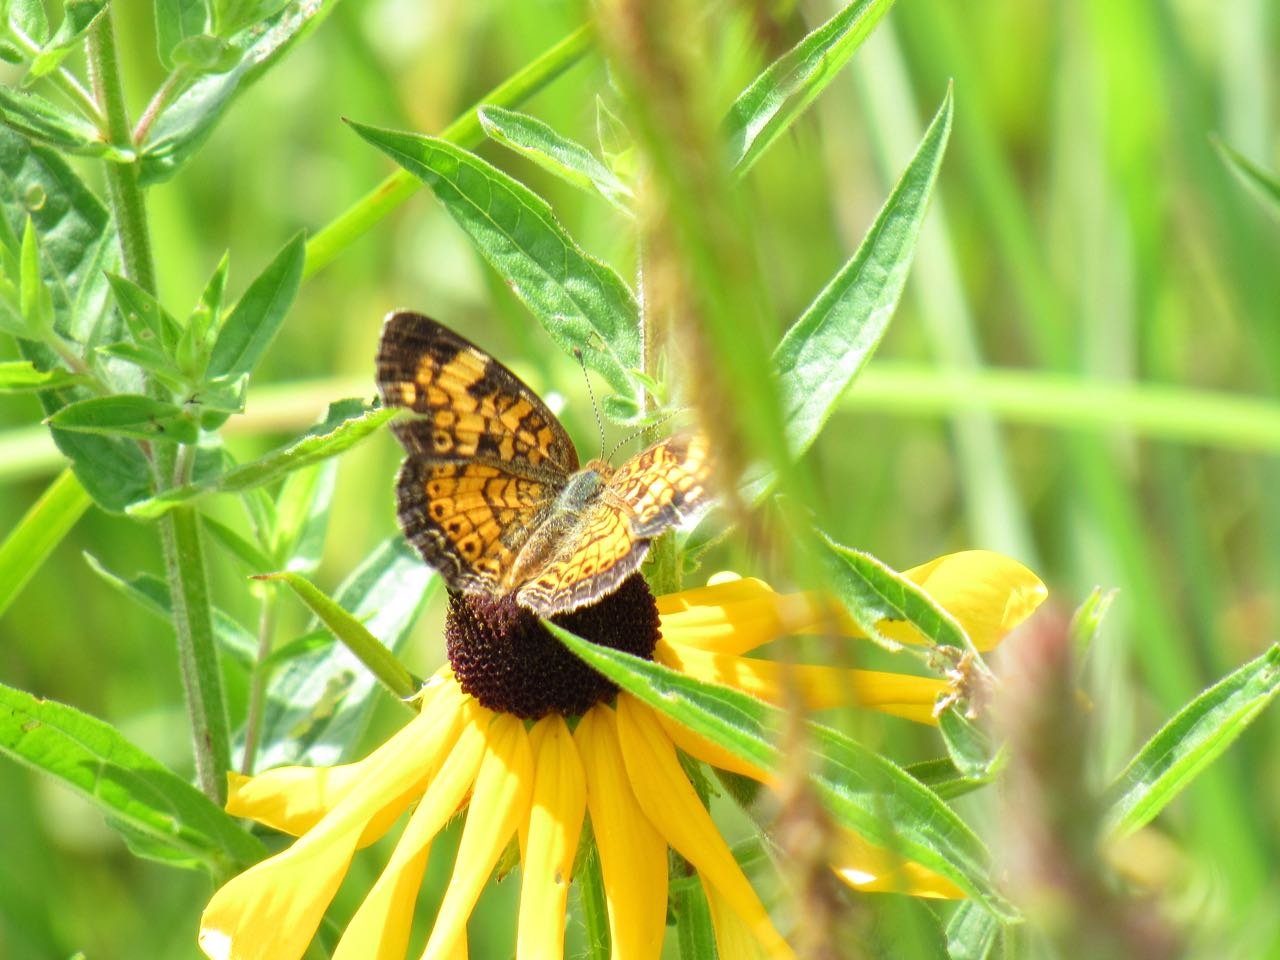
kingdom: Animalia
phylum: Arthropoda
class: Insecta
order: Lepidoptera
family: Nymphalidae
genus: Phyciodes
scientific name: Phyciodes tharos
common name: Pearl Crescent
